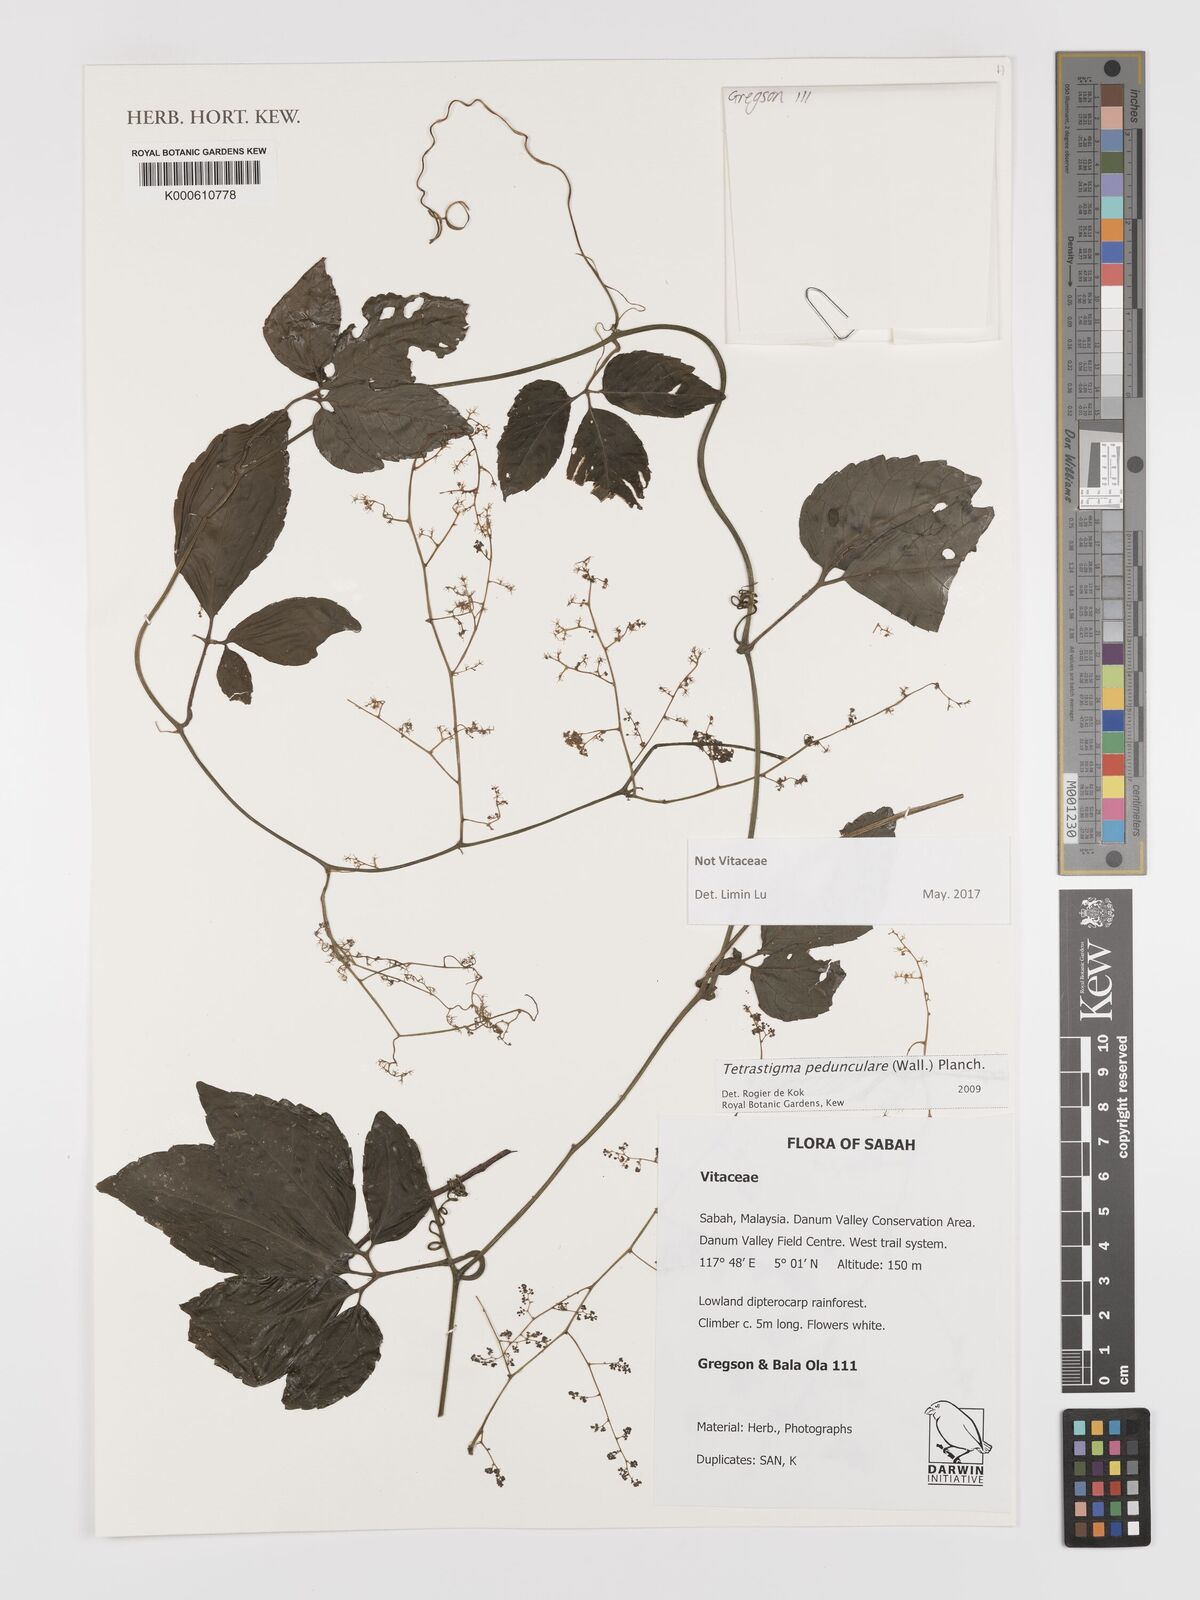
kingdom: Plantae
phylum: Tracheophyta
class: Magnoliopsida
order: Vitales
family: Vitaceae
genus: Tetrastigma
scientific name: Tetrastigma pedunculare
